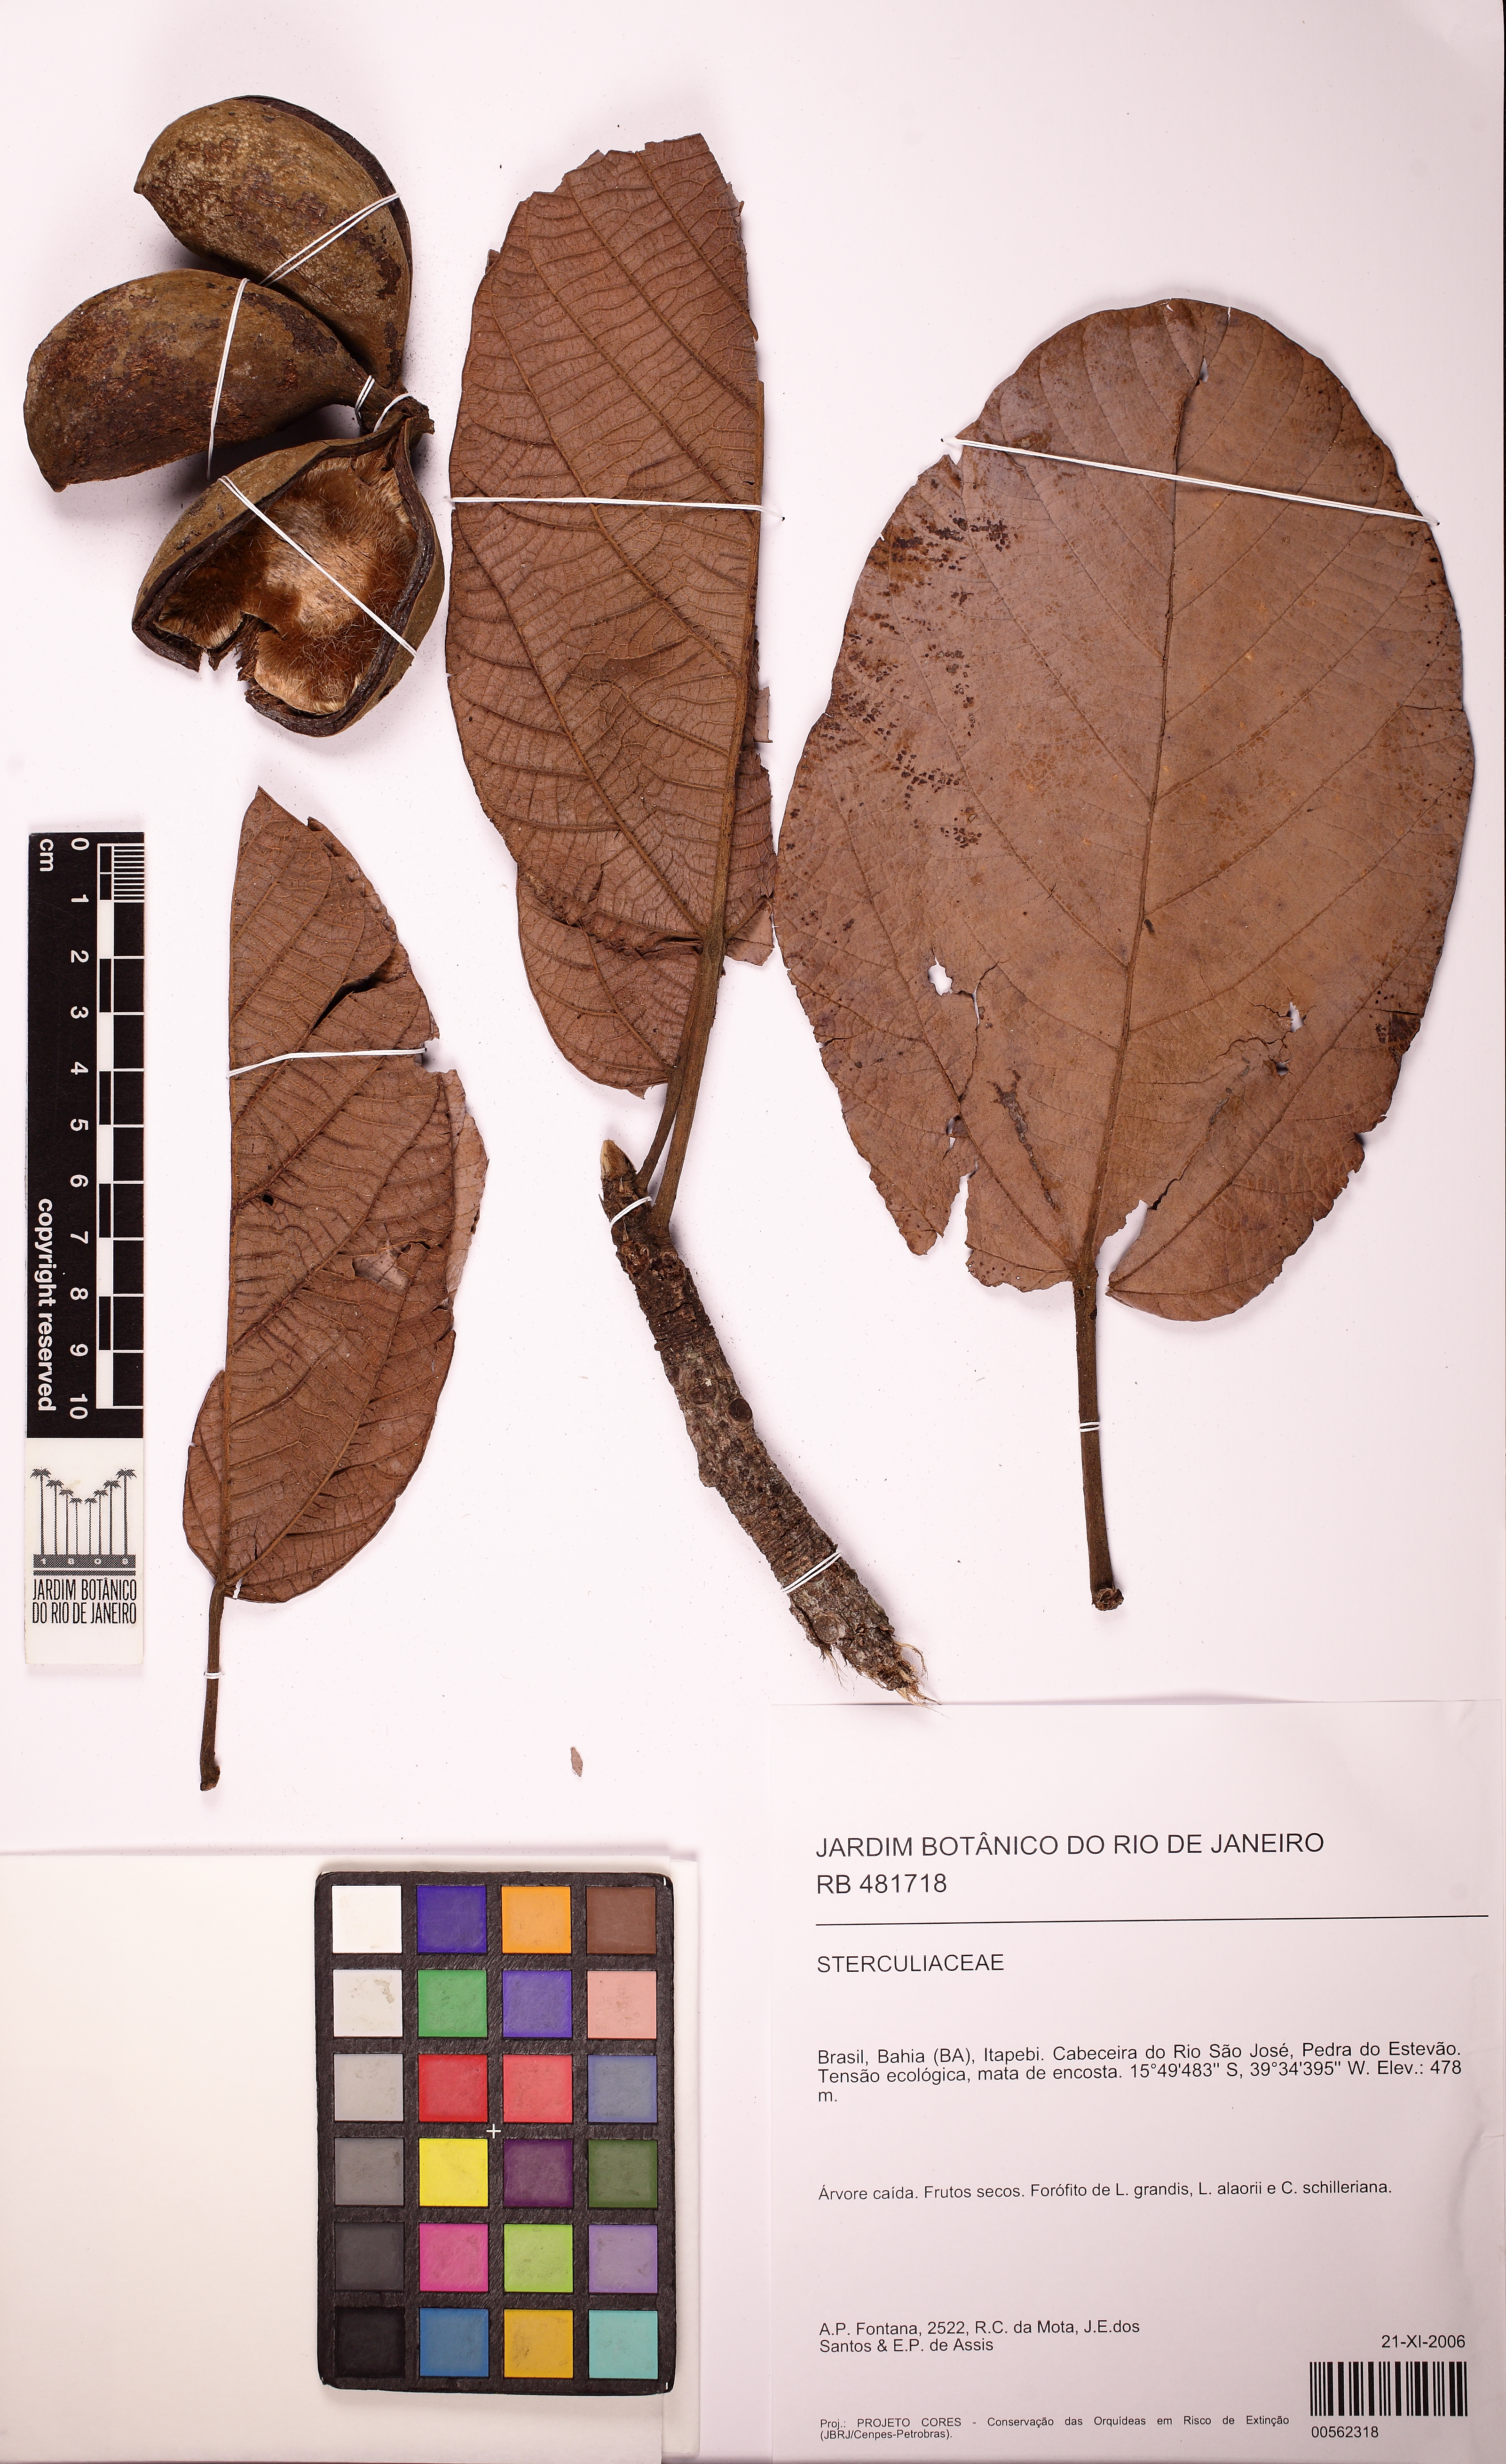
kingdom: Plantae
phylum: Tracheophyta
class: Magnoliopsida
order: Malvales
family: Malvaceae
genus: Pterygota
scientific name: Pterygota brasiliensis
